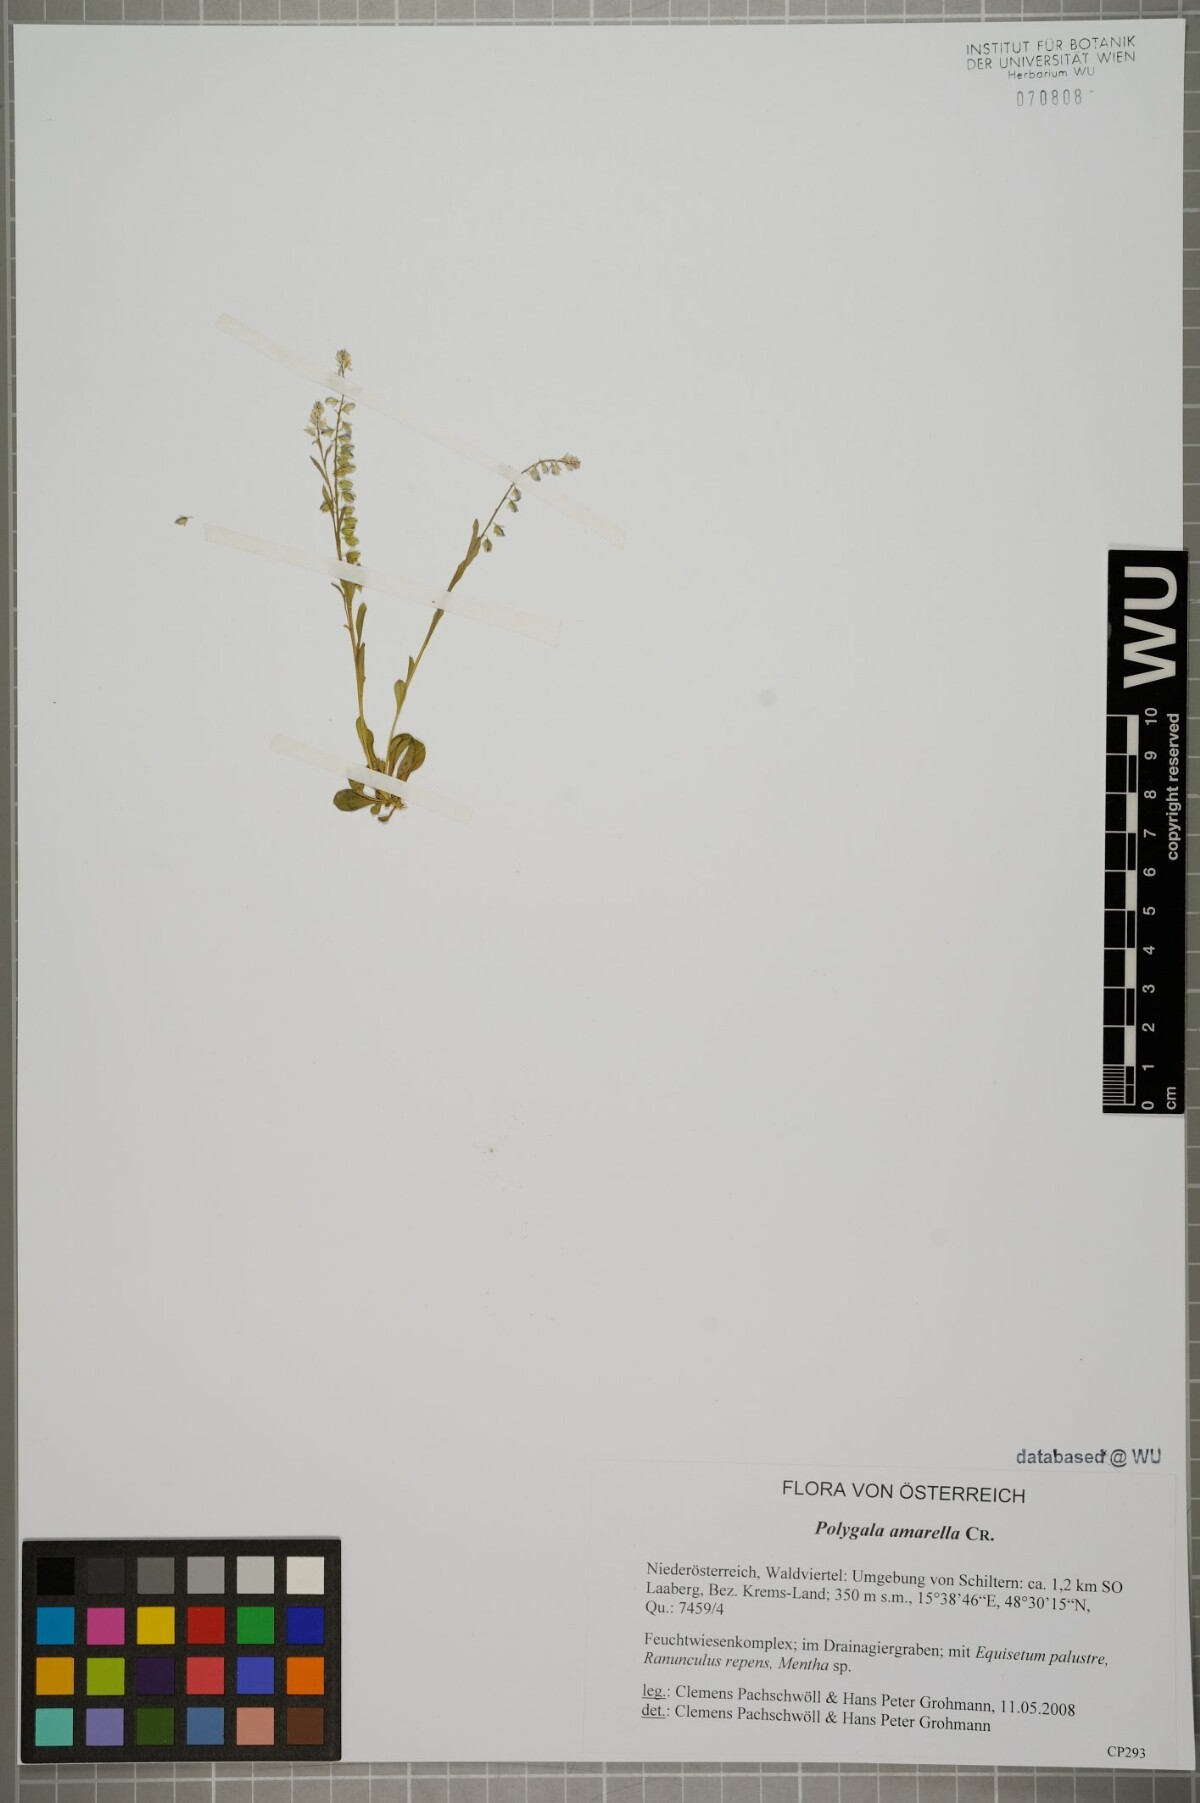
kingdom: Plantae
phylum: Tracheophyta
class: Magnoliopsida
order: Fabales
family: Polygalaceae
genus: Polygala
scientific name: Polygala amarella
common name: Dwarf milkwort
